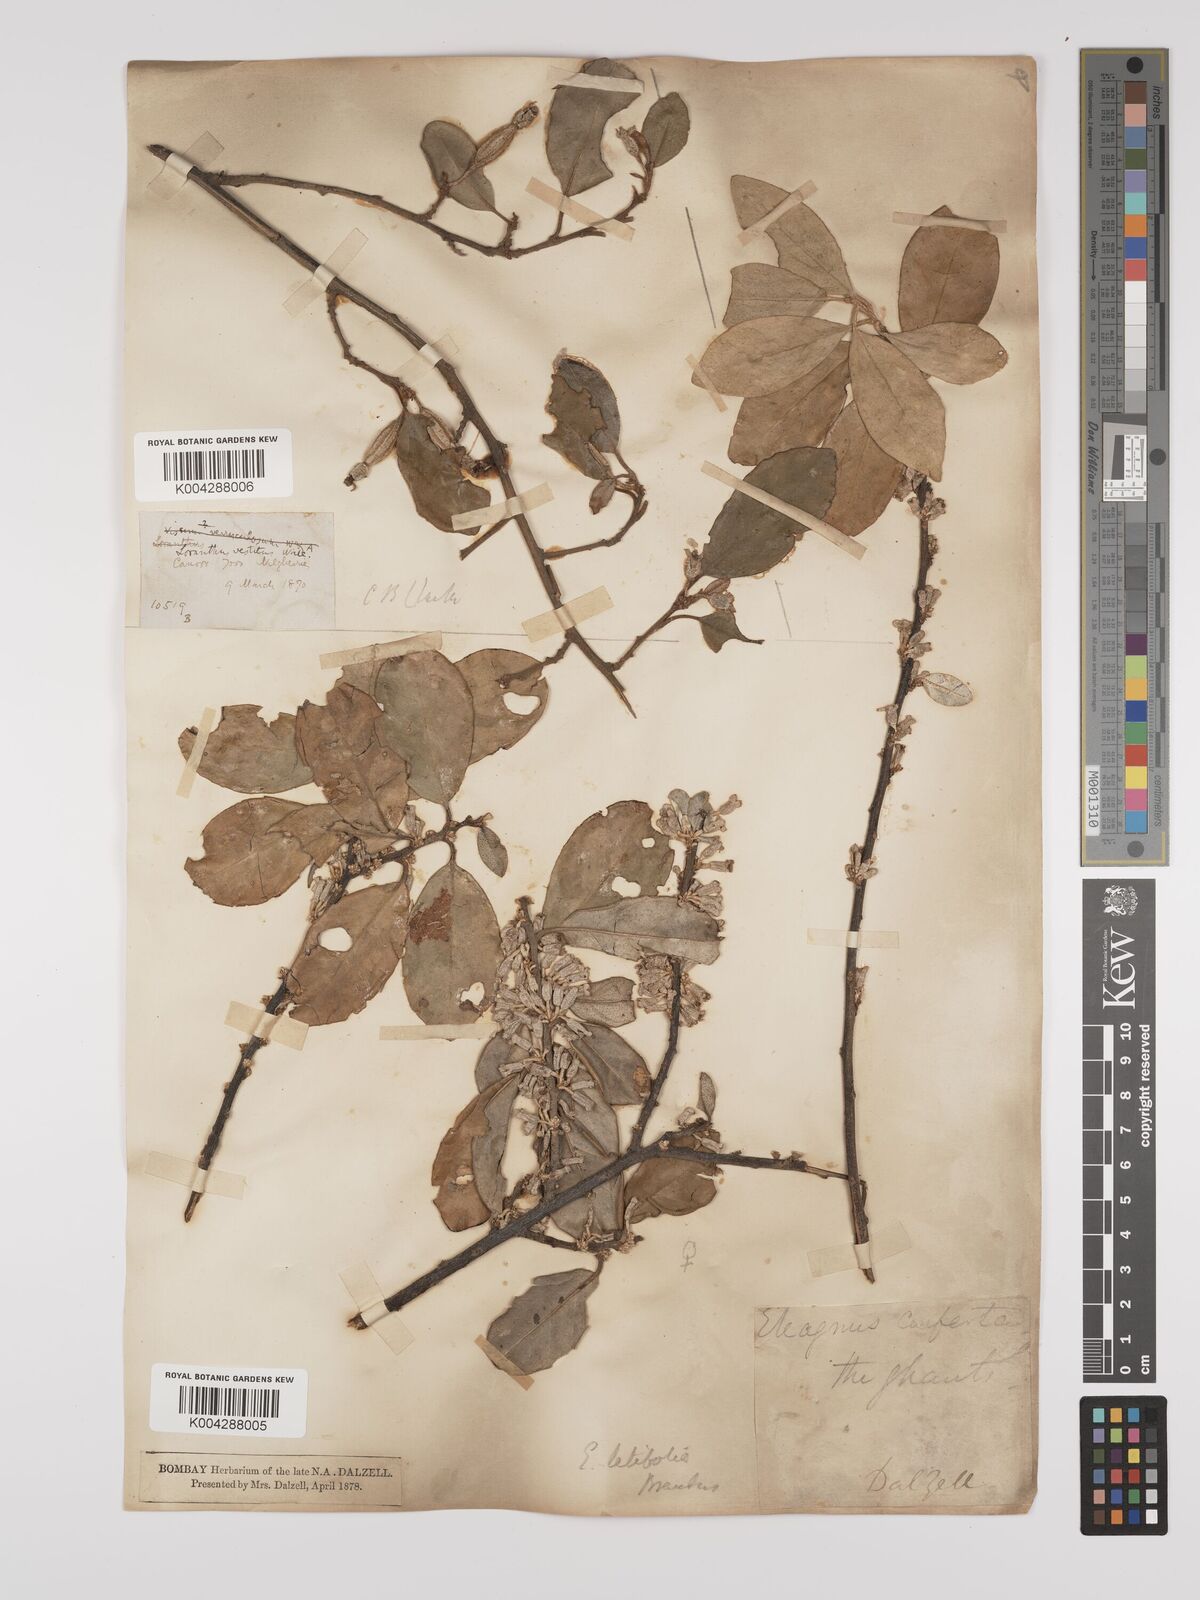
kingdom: Plantae
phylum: Tracheophyta
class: Magnoliopsida
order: Rosales
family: Elaeagnaceae
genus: Elaeagnus
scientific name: Elaeagnus latifolia
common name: Oleaster
